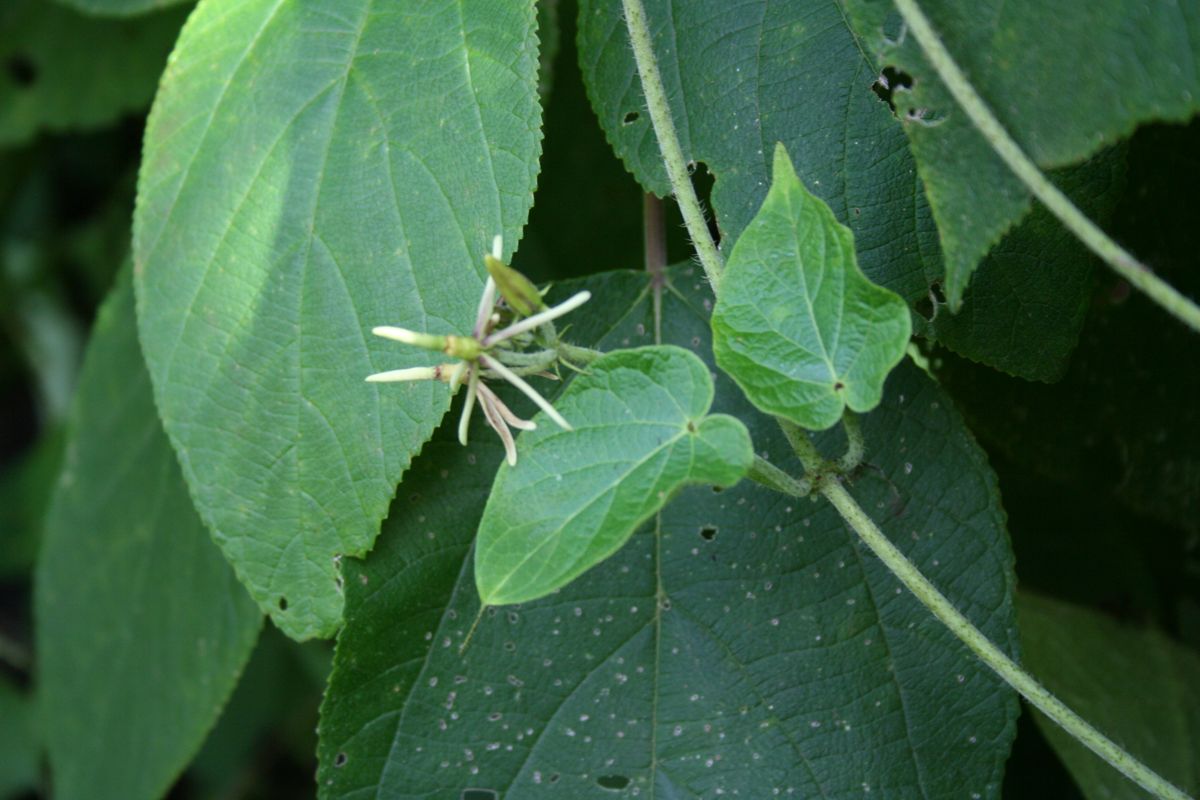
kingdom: Plantae
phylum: Tracheophyta
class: Magnoliopsida
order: Gentianales
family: Apocynaceae
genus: Matelea
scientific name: Matelea prosthecidiscus
